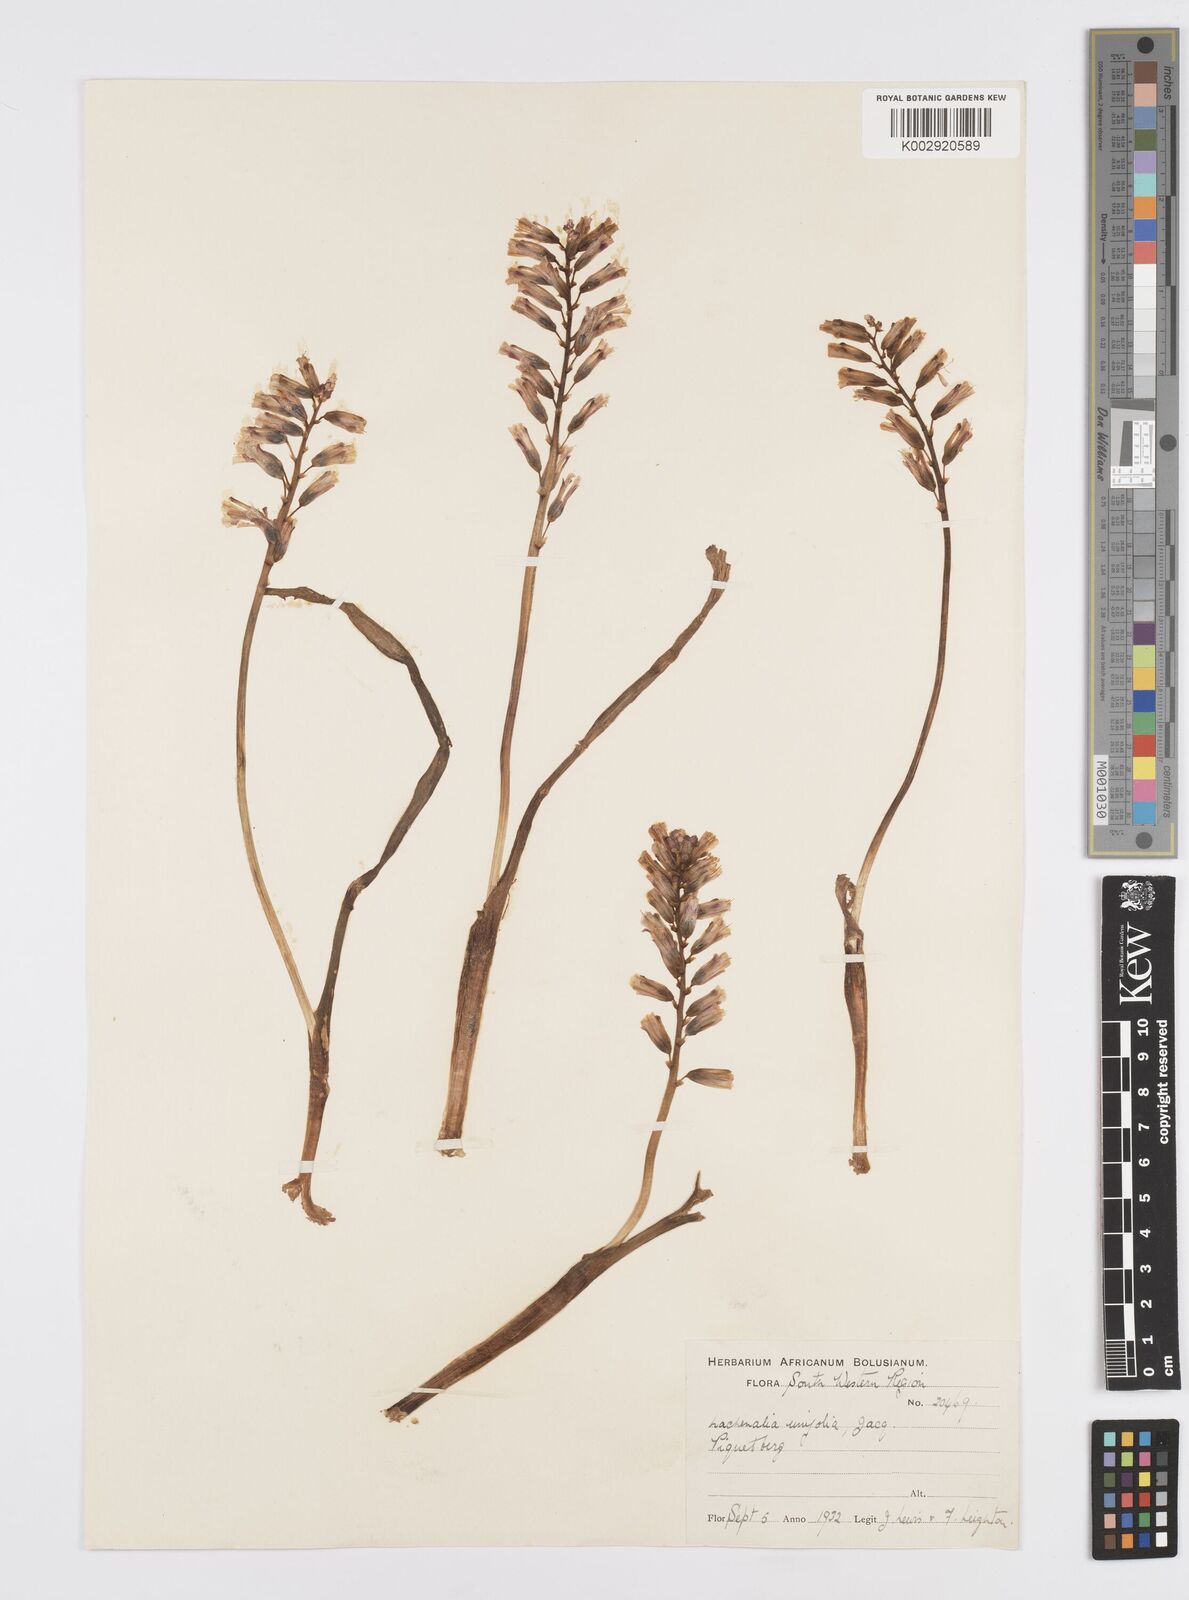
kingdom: Plantae
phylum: Tracheophyta
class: Liliopsida
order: Asparagales
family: Asparagaceae
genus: Lachenalia
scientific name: Lachenalia unifolia
